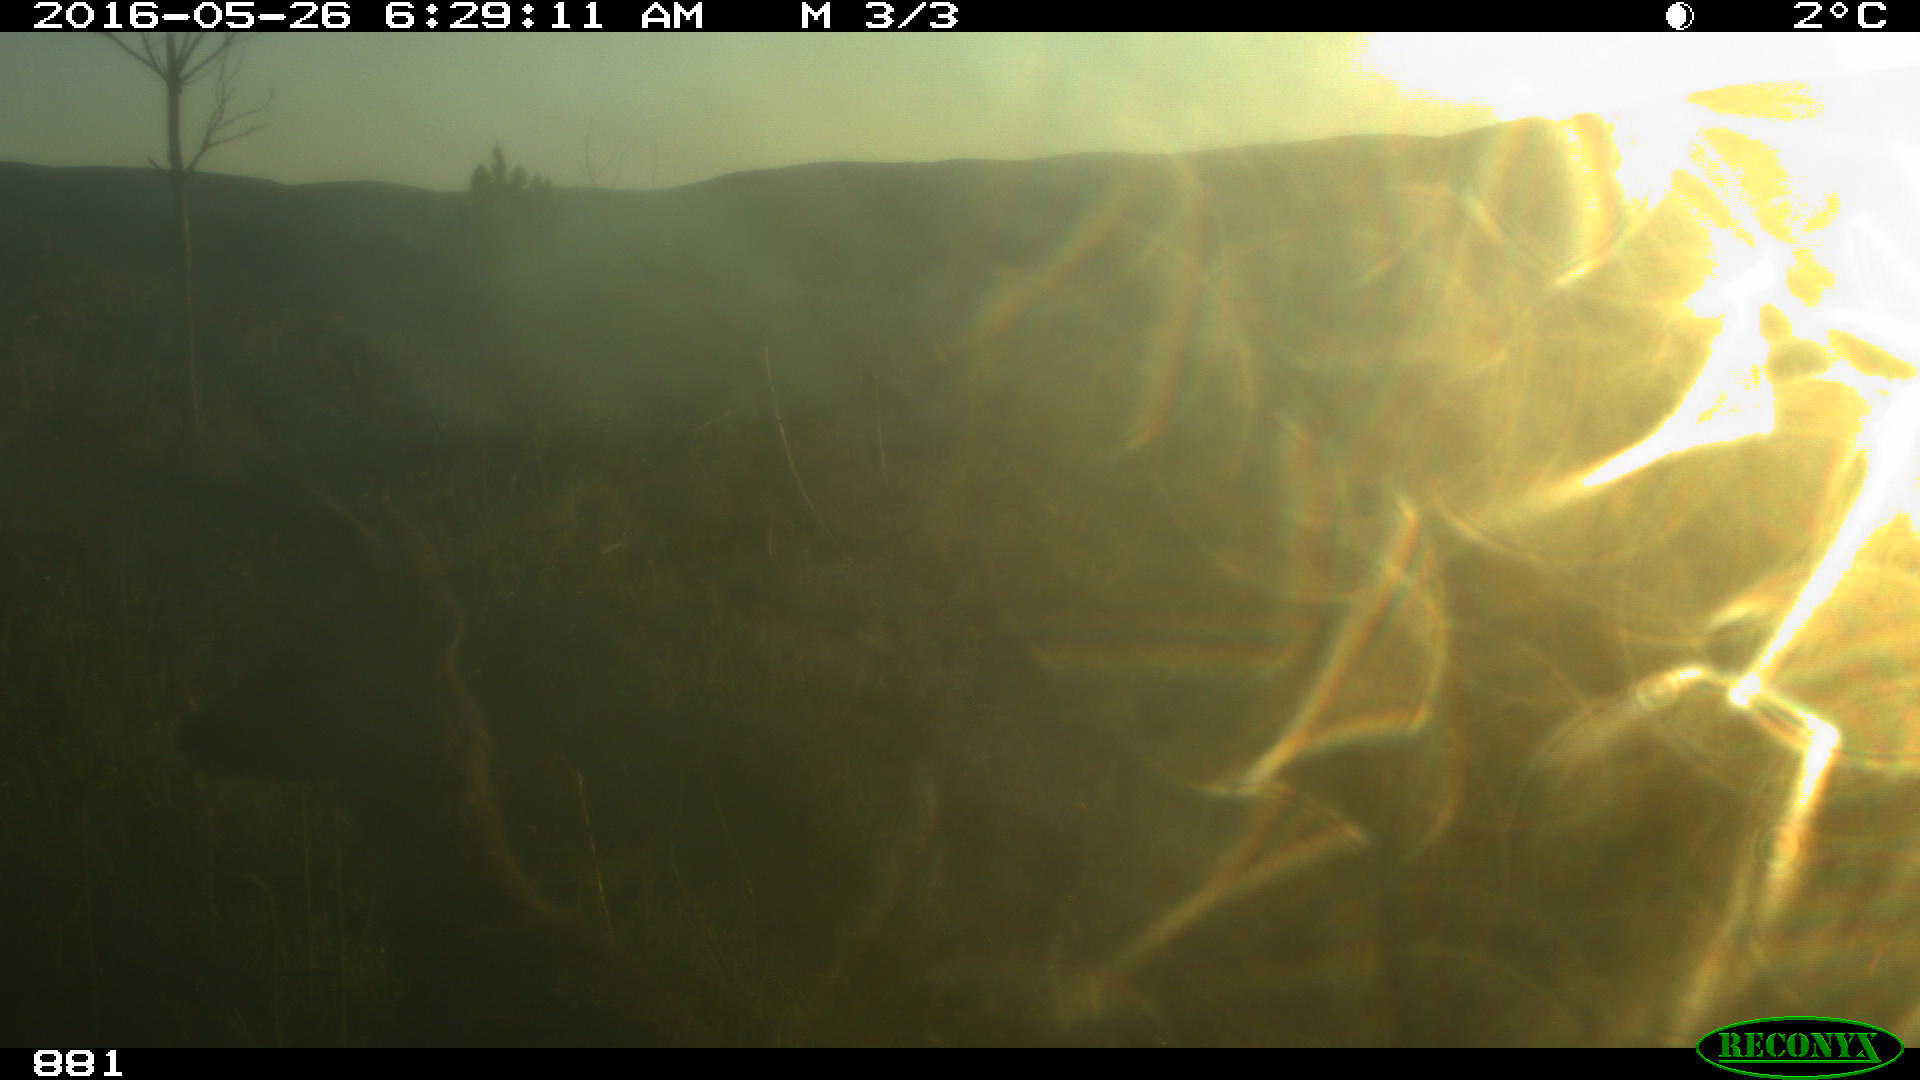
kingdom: Animalia
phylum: Chordata
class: Mammalia
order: Artiodactyla
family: Cervidae
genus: Capreolus
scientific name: Capreolus capreolus
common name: Western roe deer
